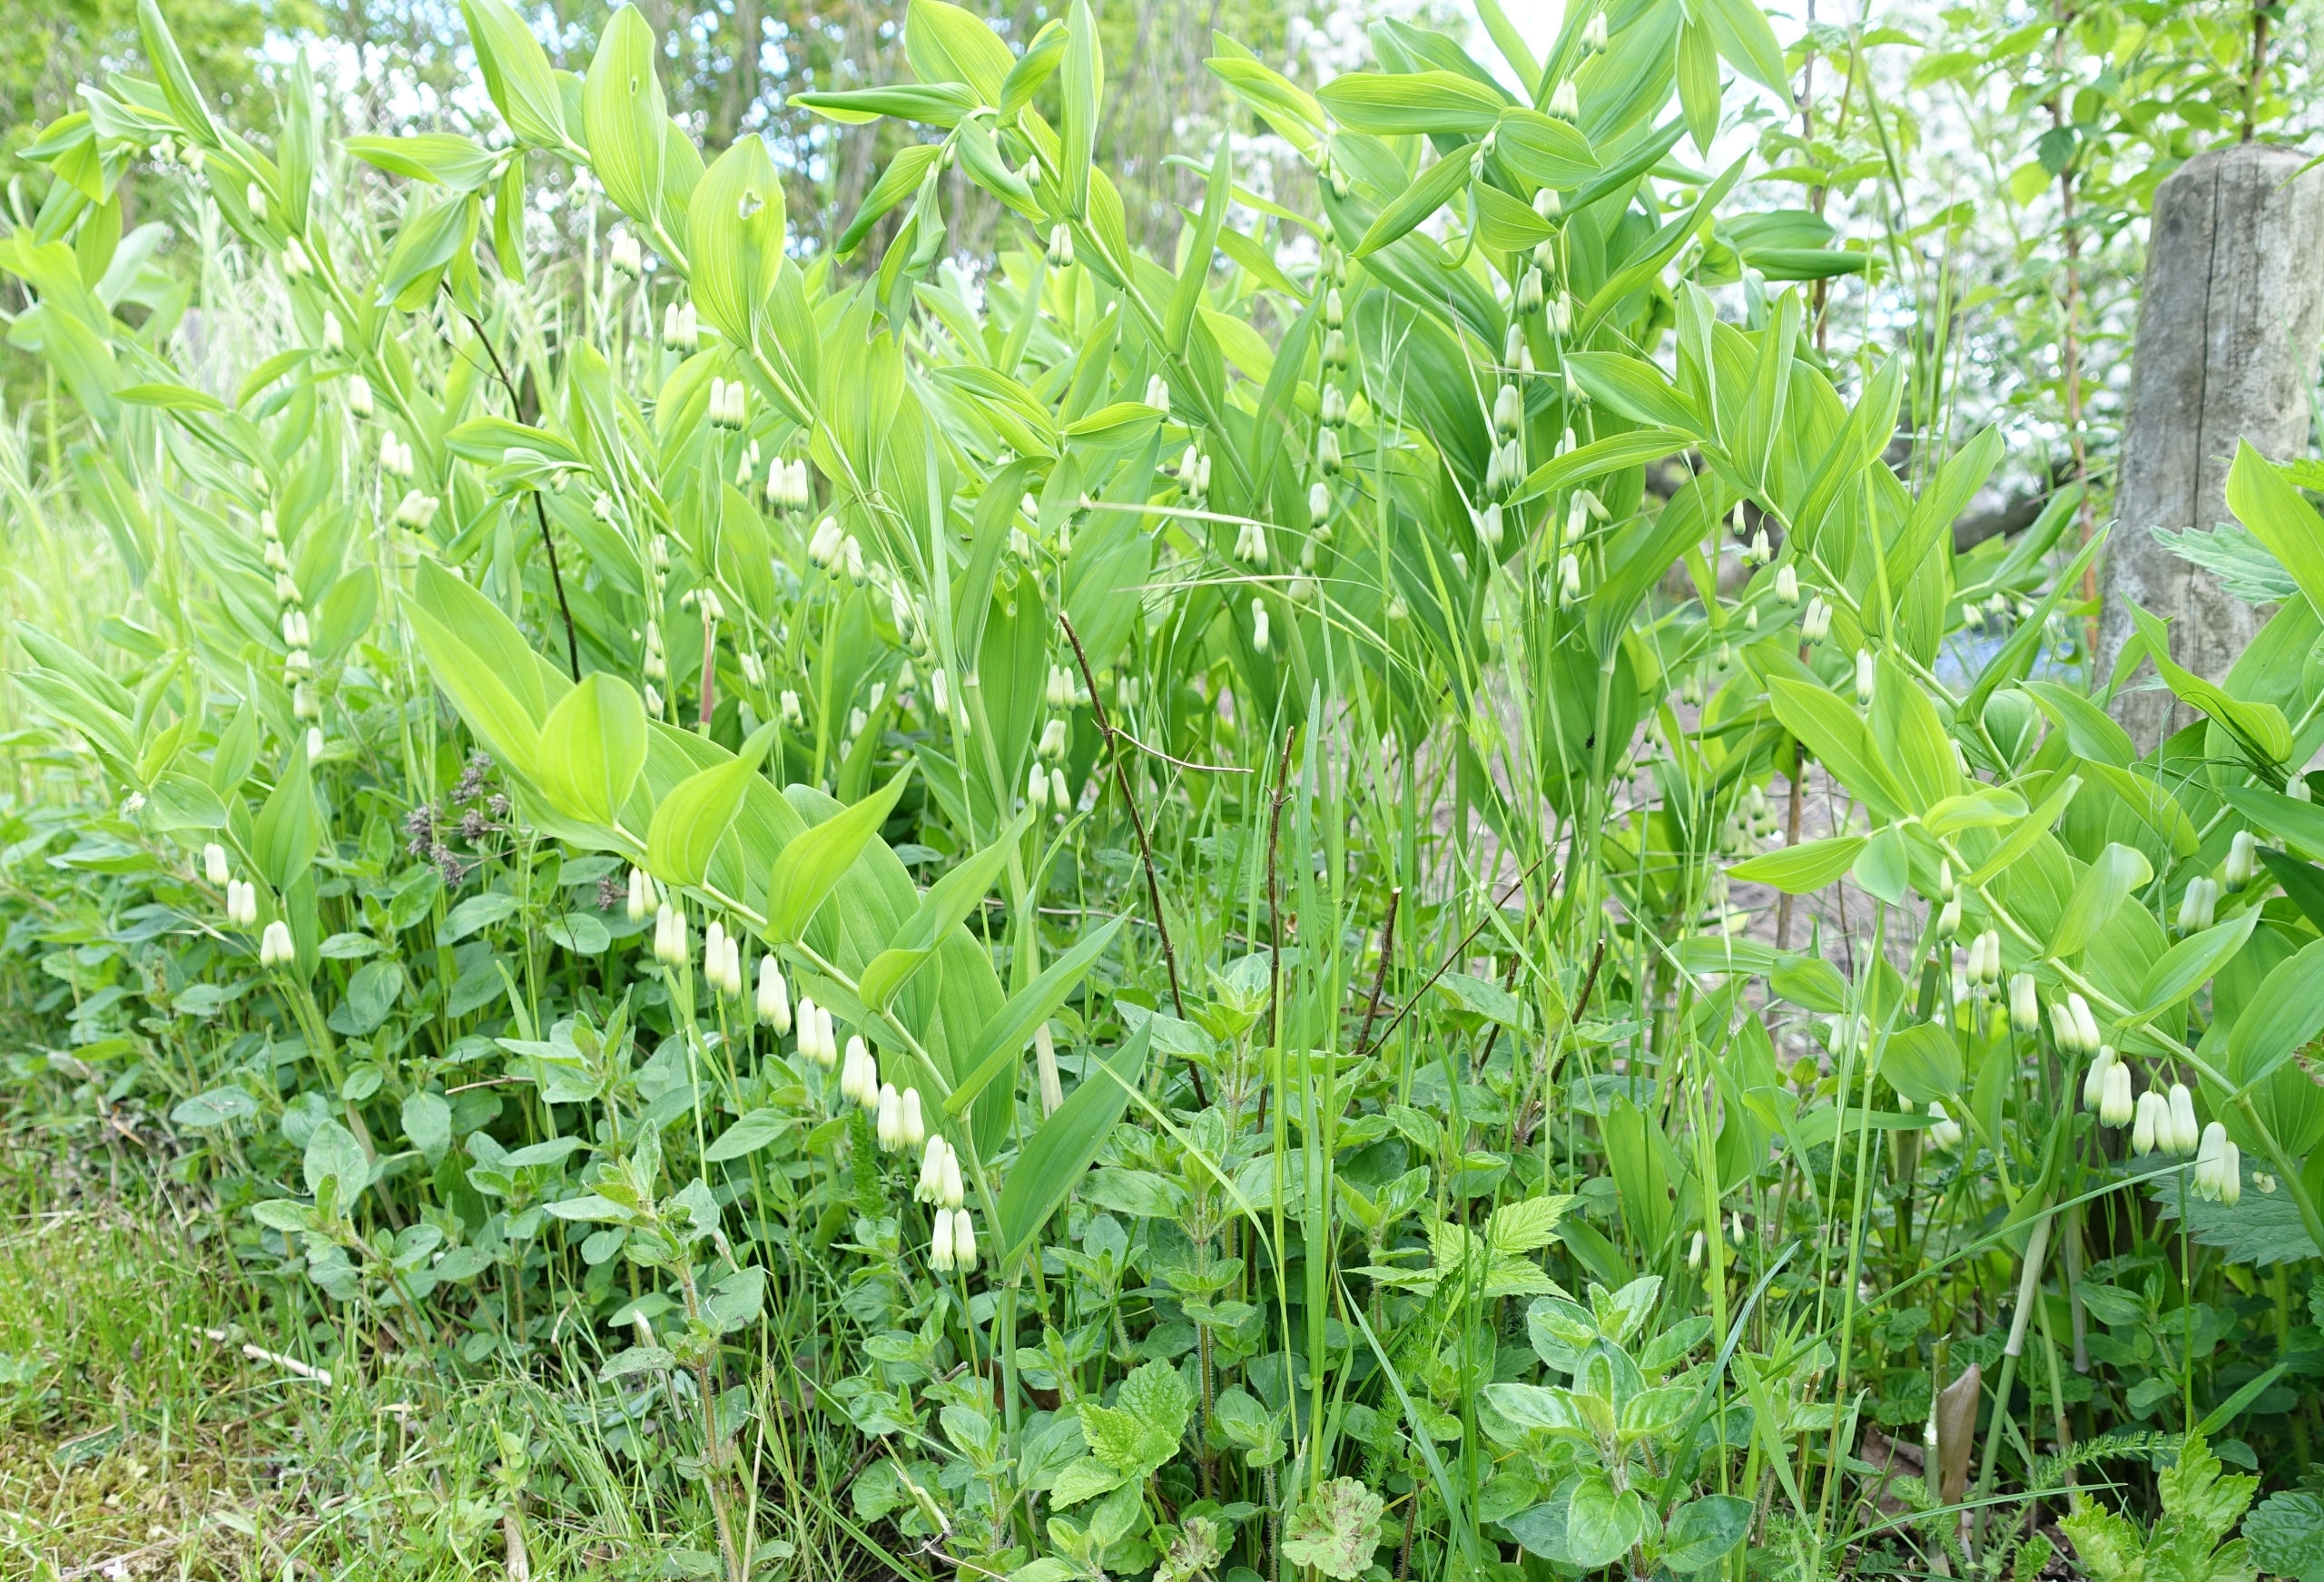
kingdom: Plantae
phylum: Tracheophyta
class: Liliopsida
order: Asparagales
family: Asparagaceae
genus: Polygonatum
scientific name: Polygonatum
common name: Hybrid-konval
